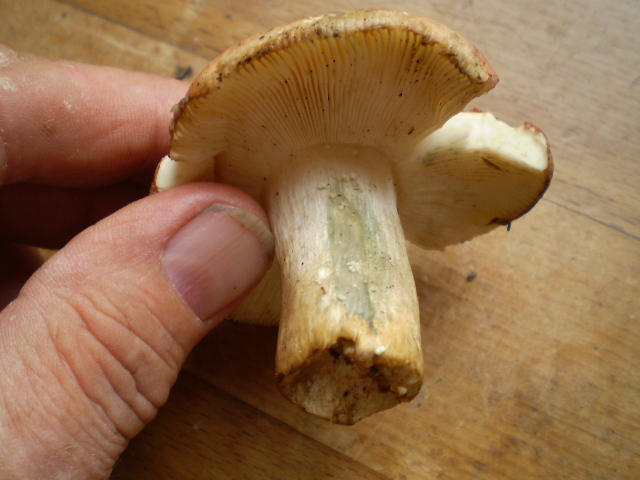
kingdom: Fungi
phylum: Basidiomycota
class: Agaricomycetes
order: Russulales
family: Russulaceae
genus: Russula
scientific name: Russula faginea
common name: bøge-skørhat
